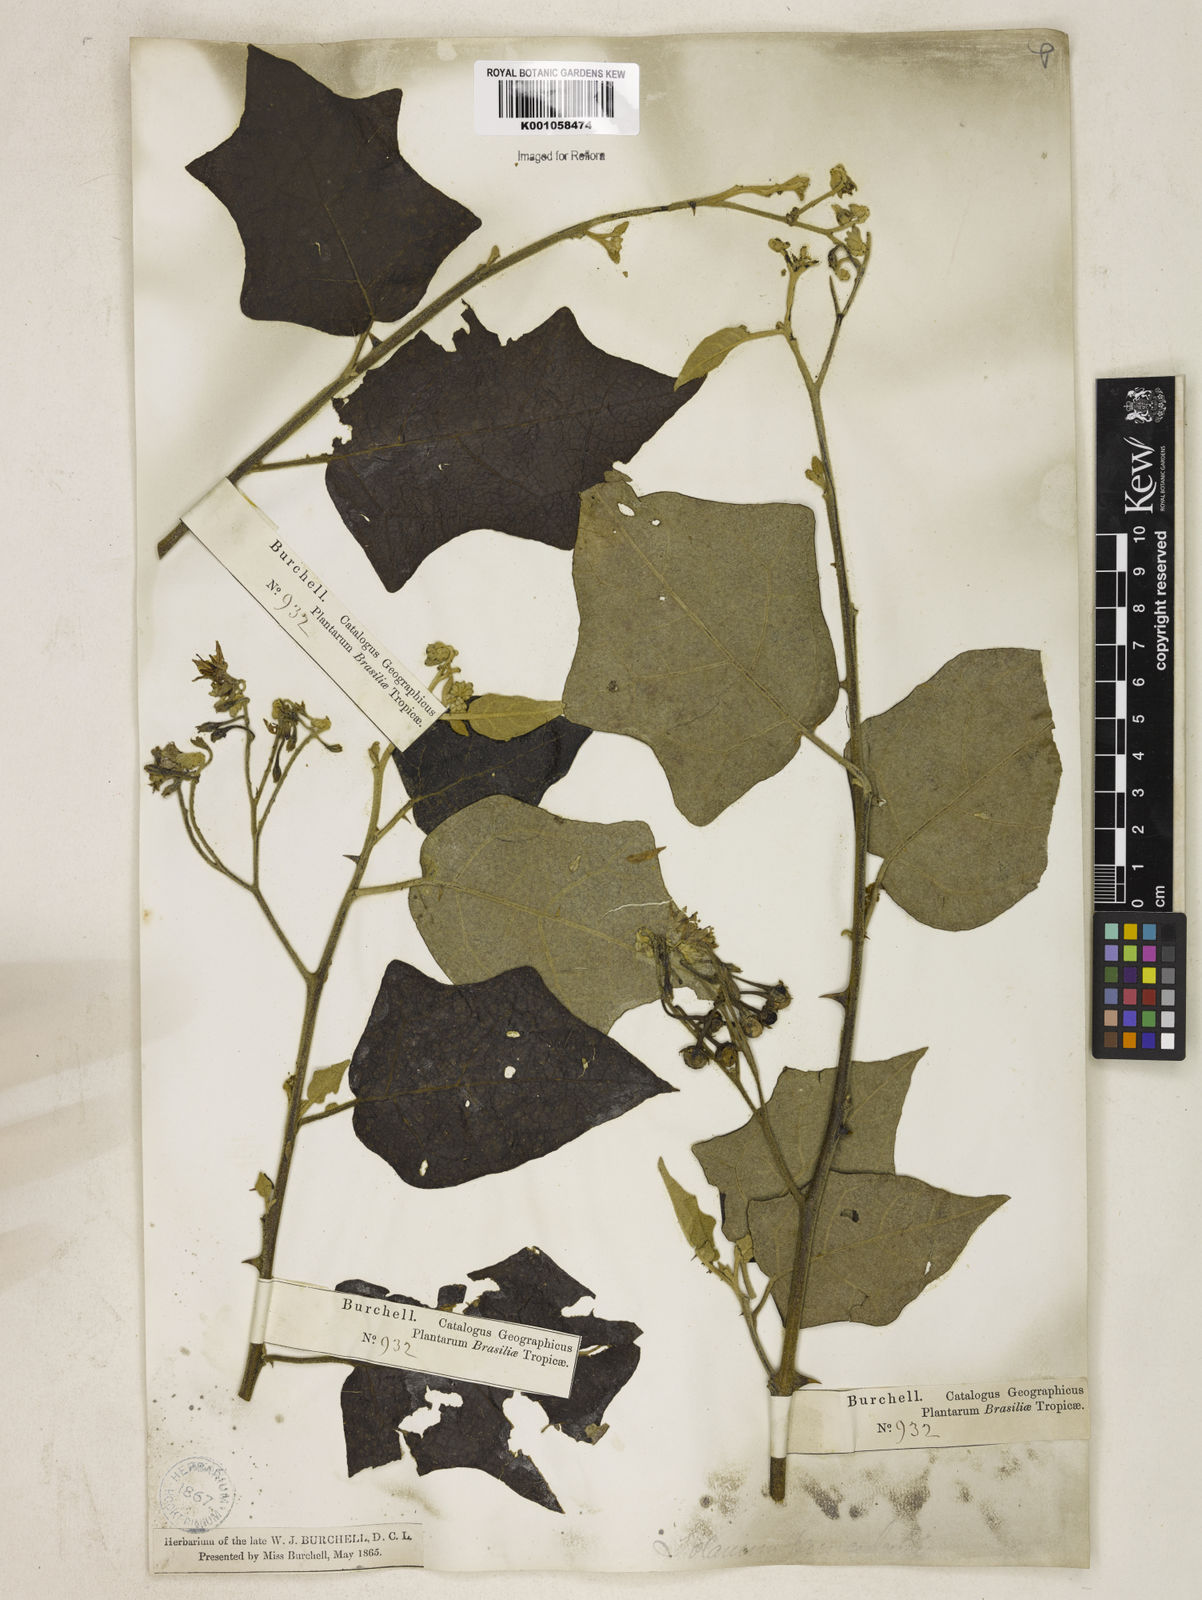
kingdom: Plantae
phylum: Tracheophyta
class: Magnoliopsida
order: Solanales
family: Solanaceae
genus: Solanum
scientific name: Solanum paniculatum
